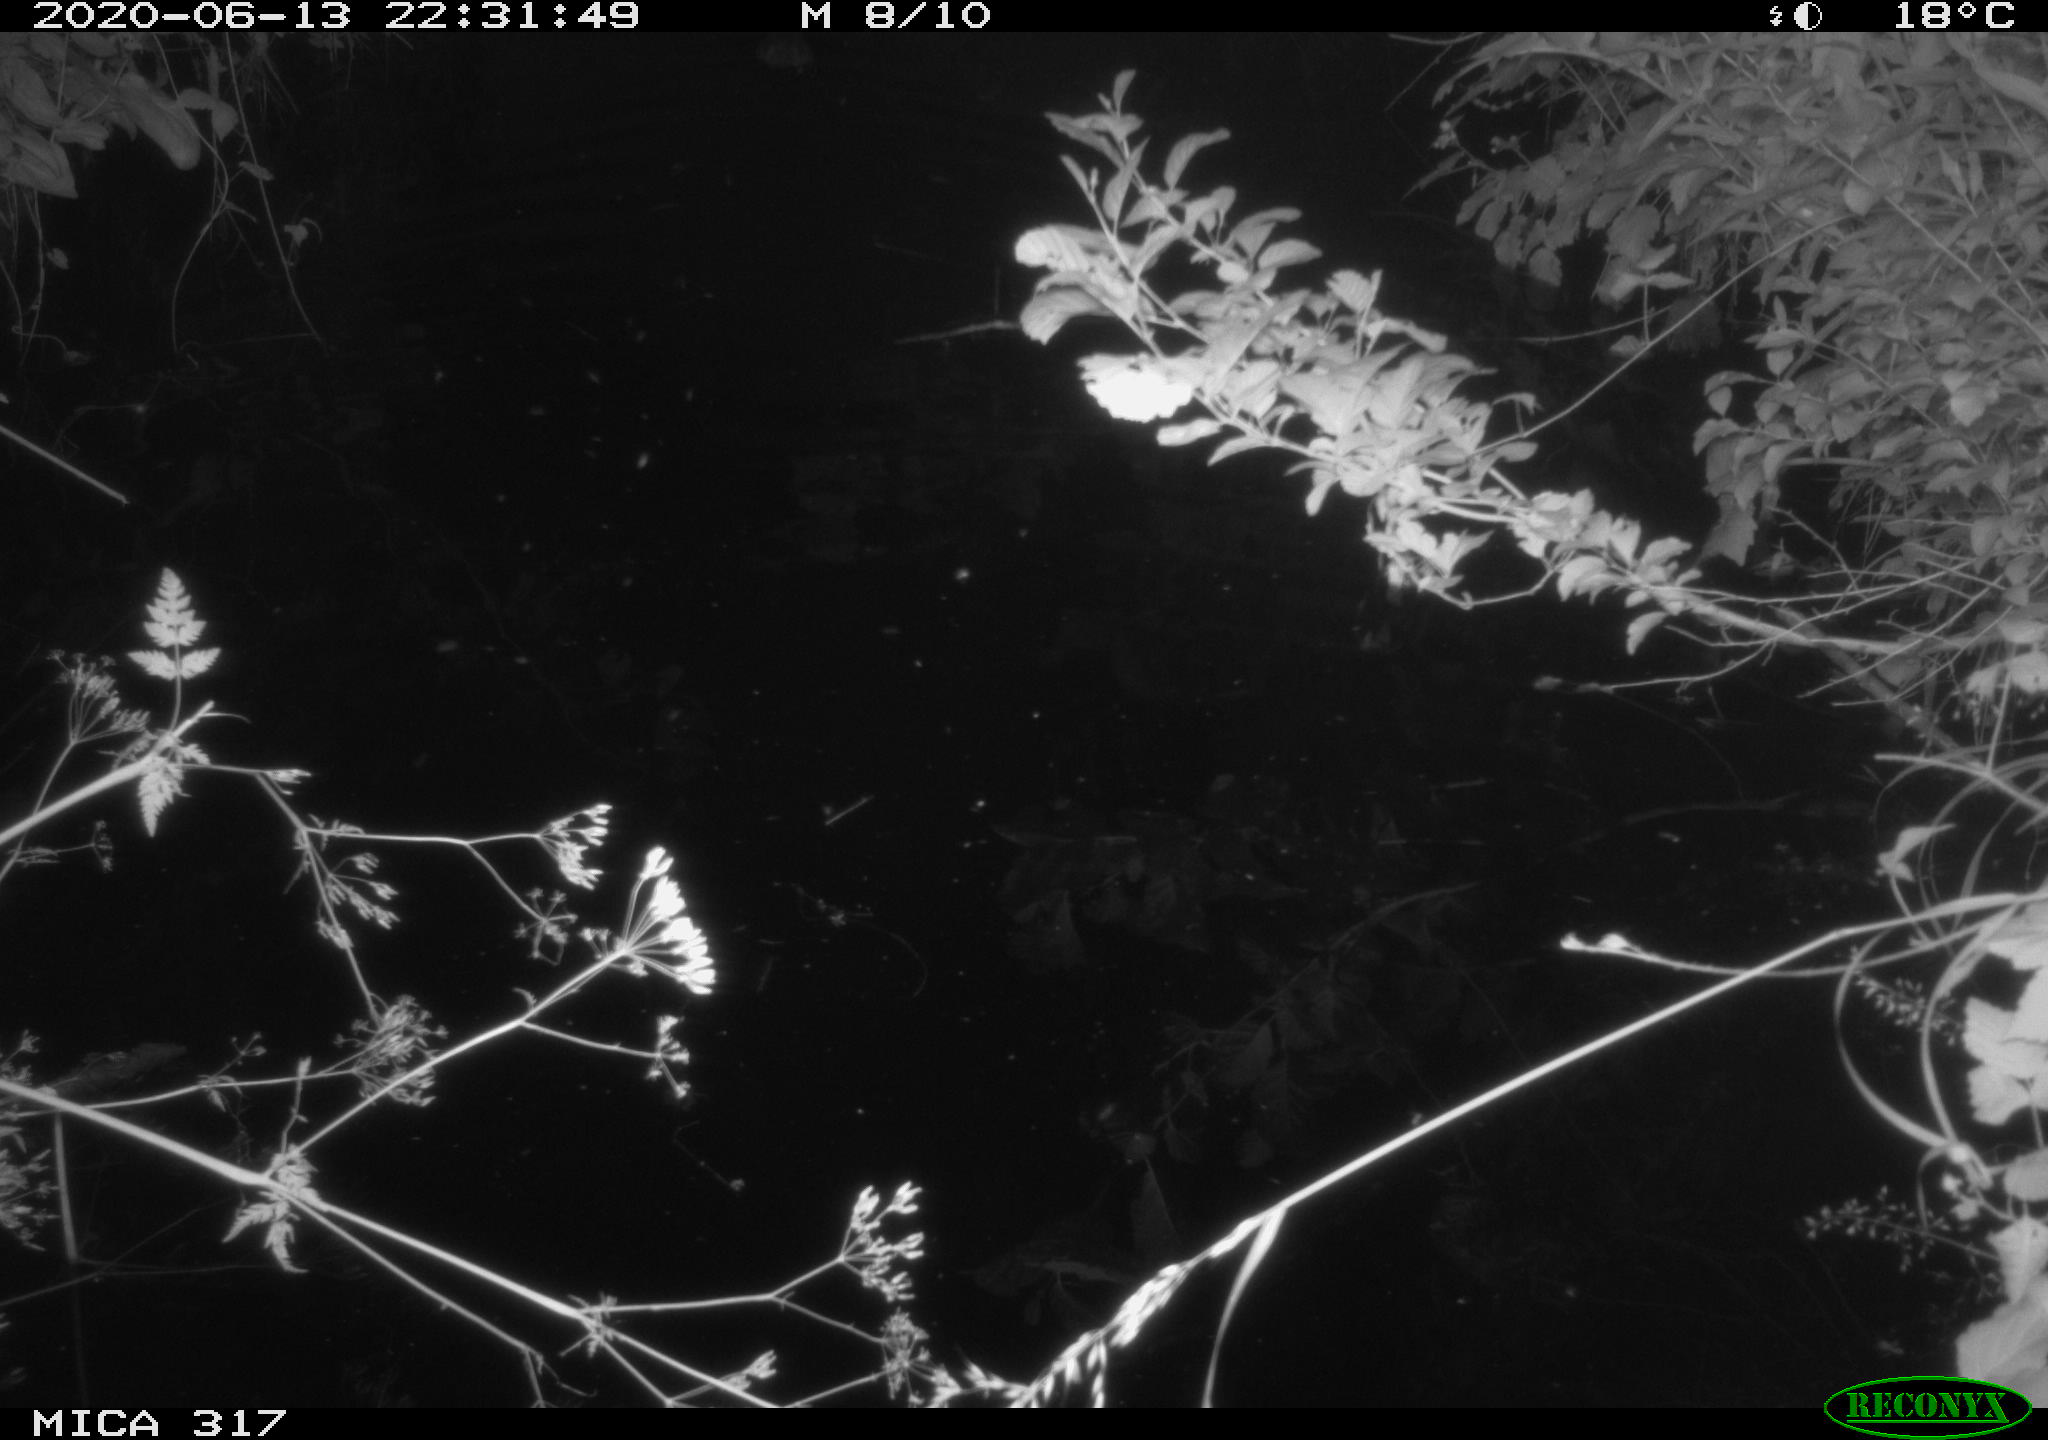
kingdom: Animalia
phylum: Chordata
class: Aves
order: Anseriformes
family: Anatidae
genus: Anas
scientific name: Anas platyrhynchos
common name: Mallard
